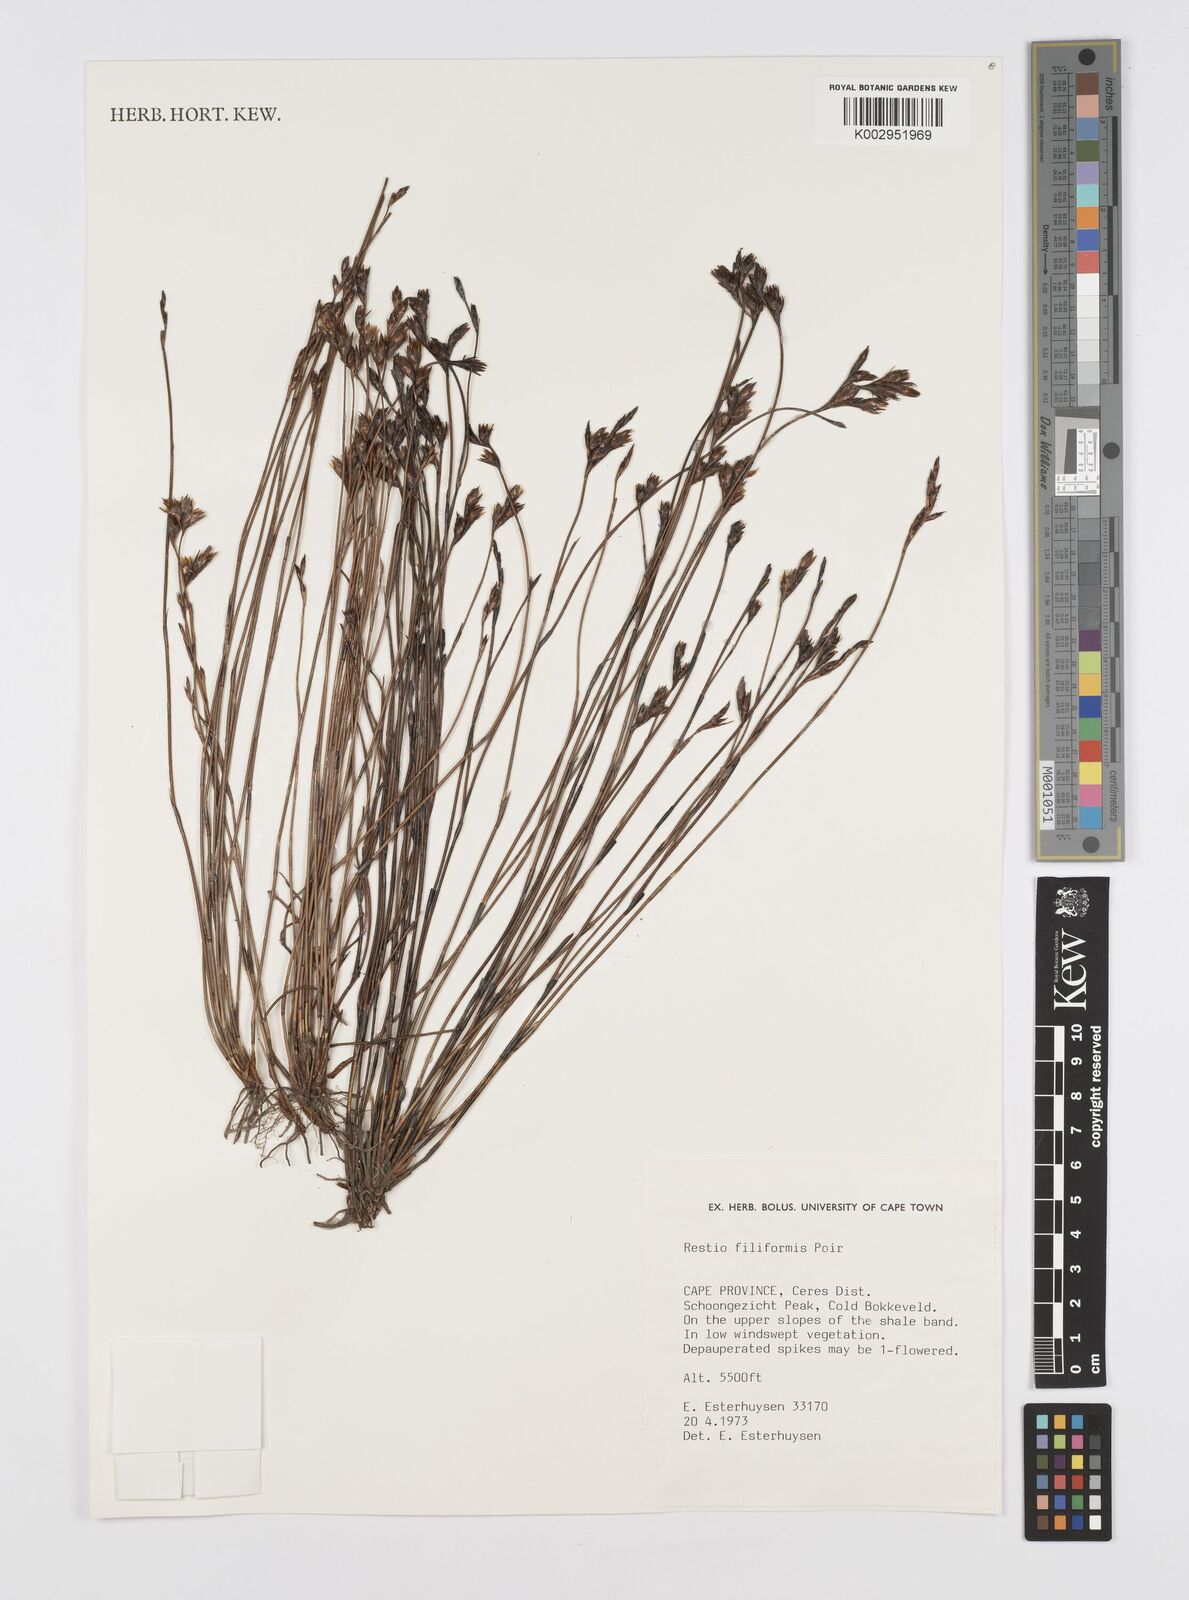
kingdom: Plantae
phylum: Tracheophyta
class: Liliopsida
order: Poales
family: Restionaceae
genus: Restio
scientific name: Restio filiformis
